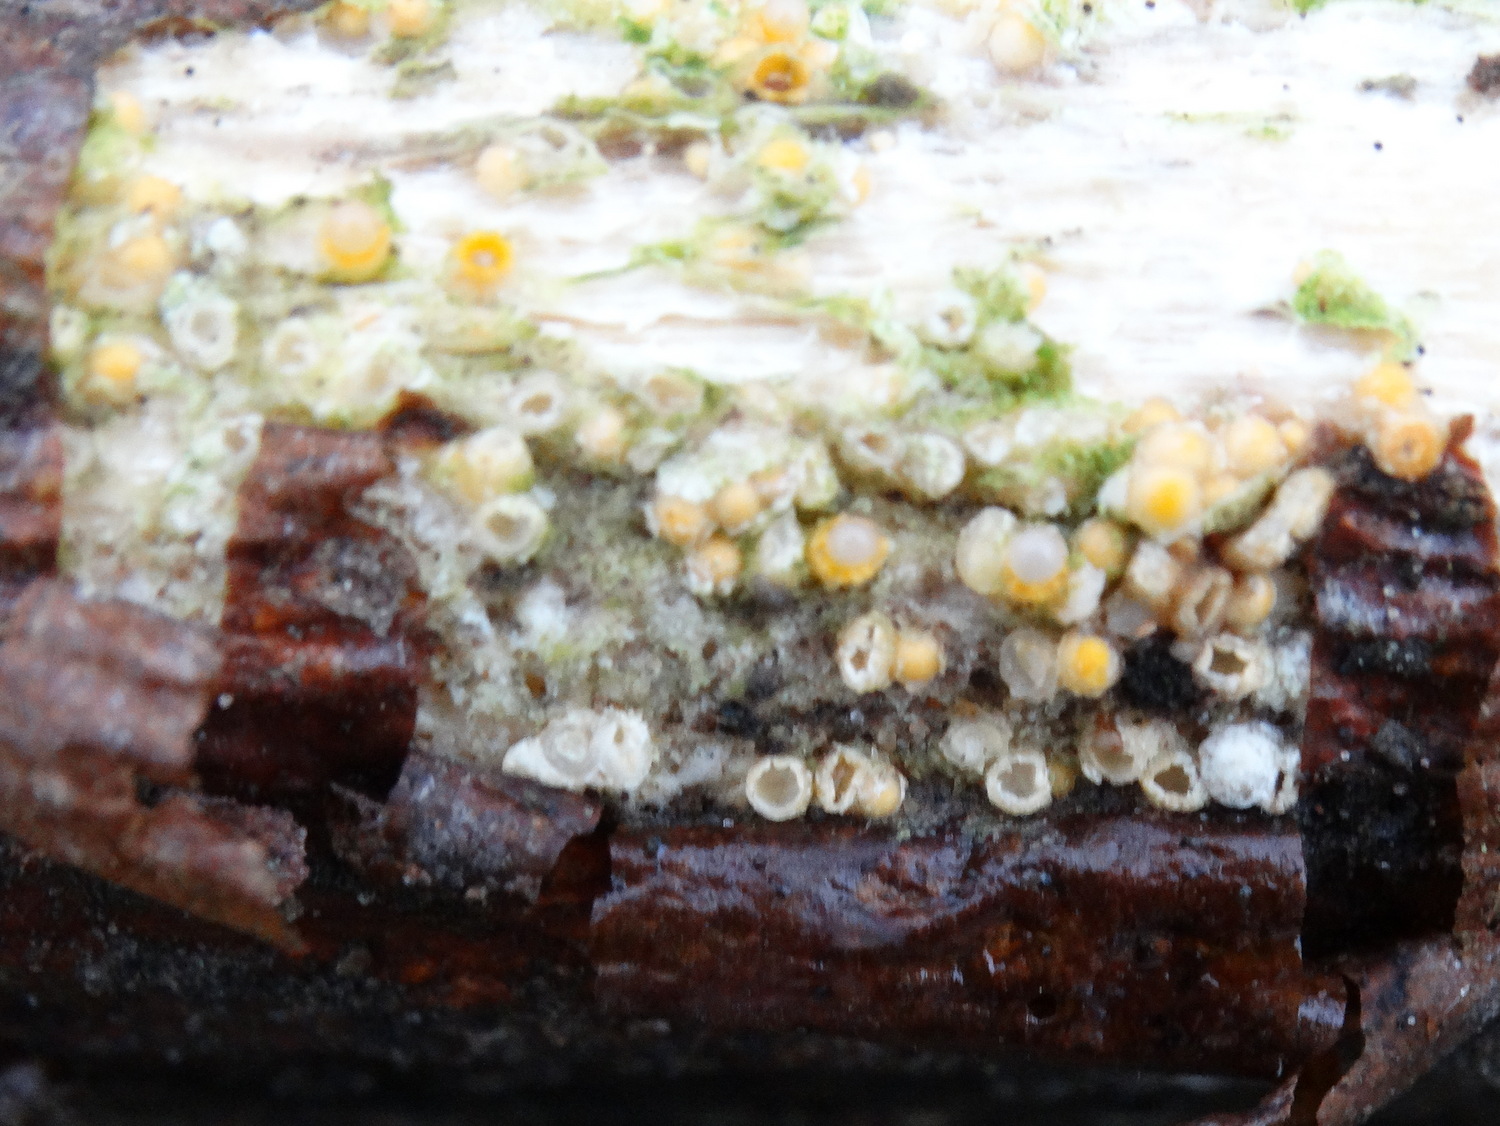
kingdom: Fungi
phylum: Basidiomycota
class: Agaricomycetes
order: Geastrales
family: Geastraceae
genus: Sphaerobolus
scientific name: Sphaerobolus stellatus
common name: bombekaster
